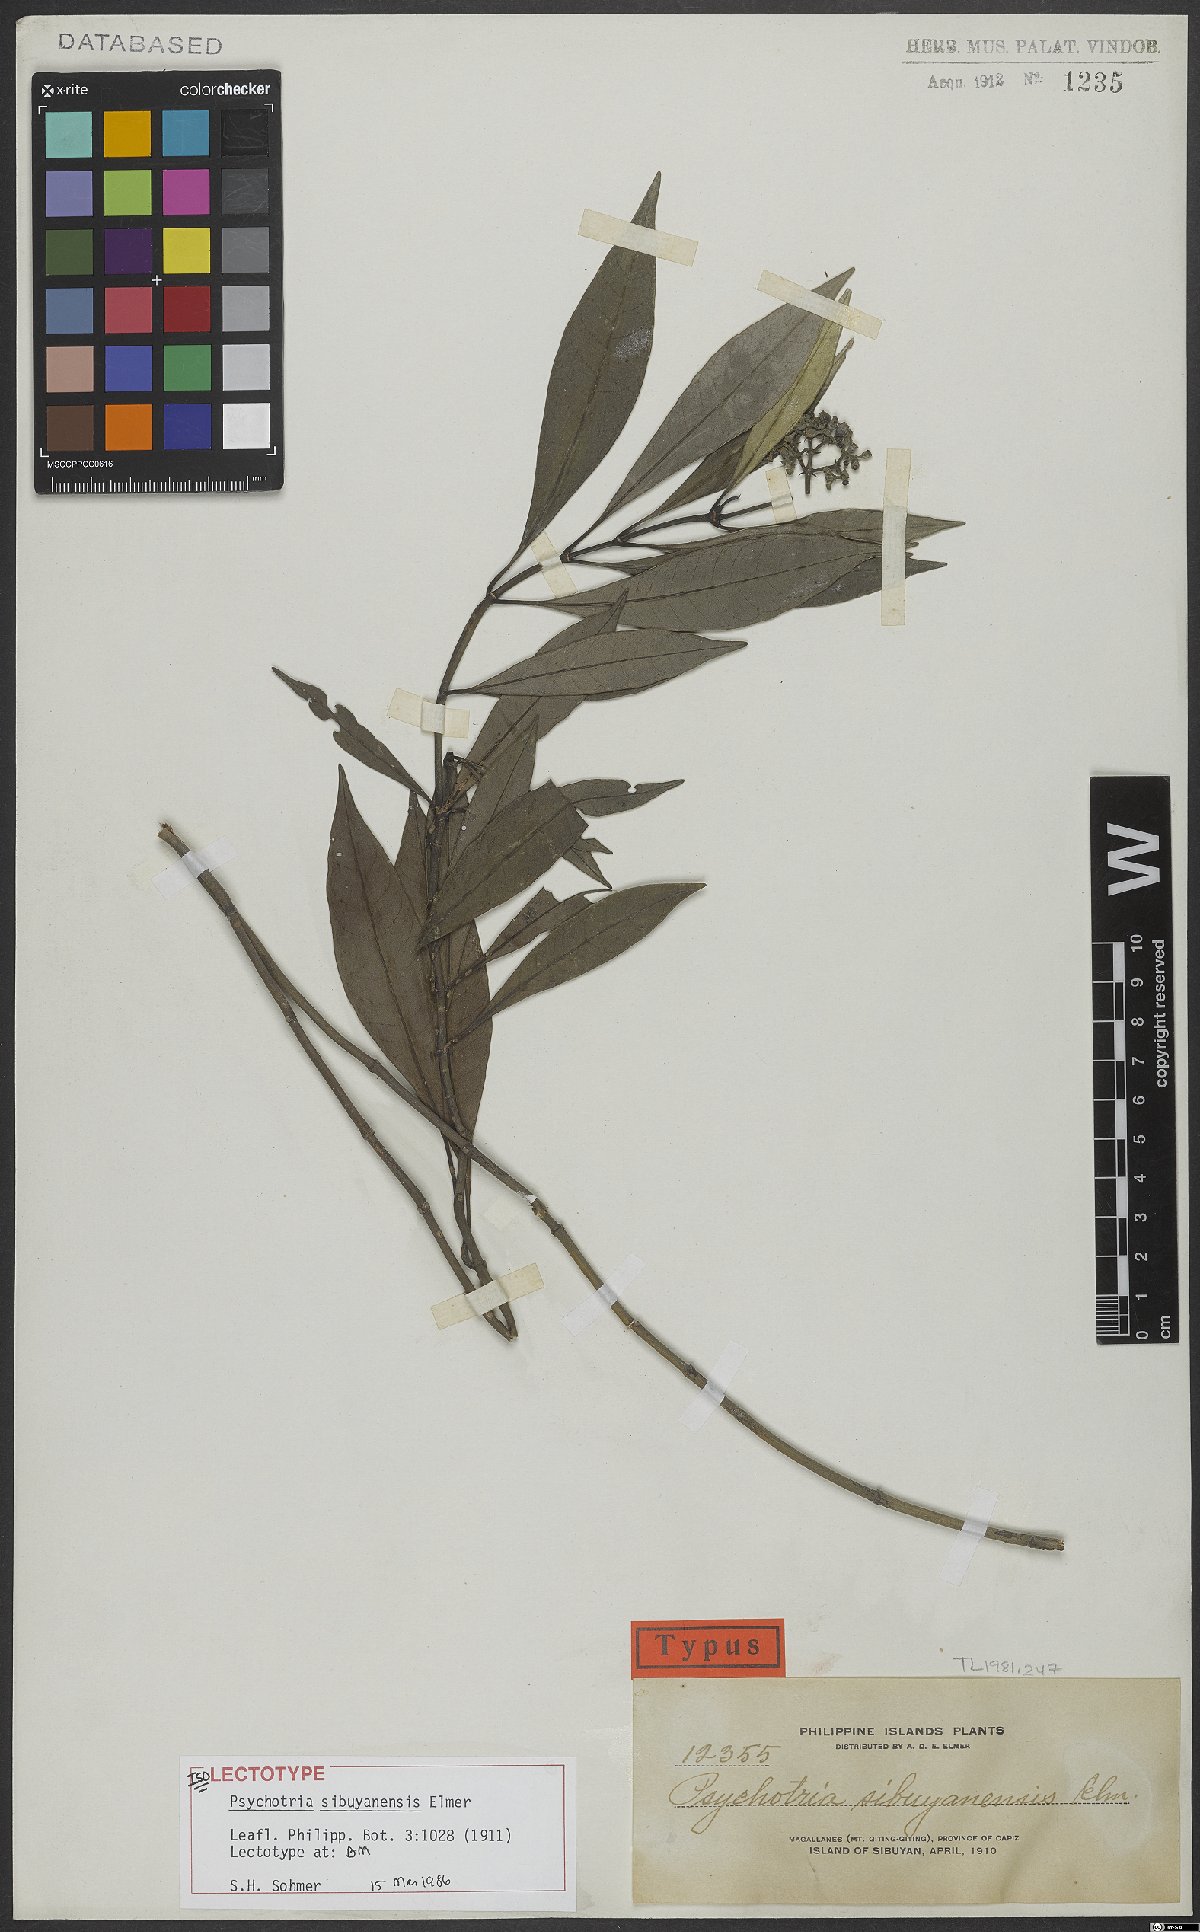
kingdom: Plantae
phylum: Tracheophyta
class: Magnoliopsida
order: Gentianales
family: Rubiaceae
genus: Psychotria
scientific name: Psychotria sibuyanensis
